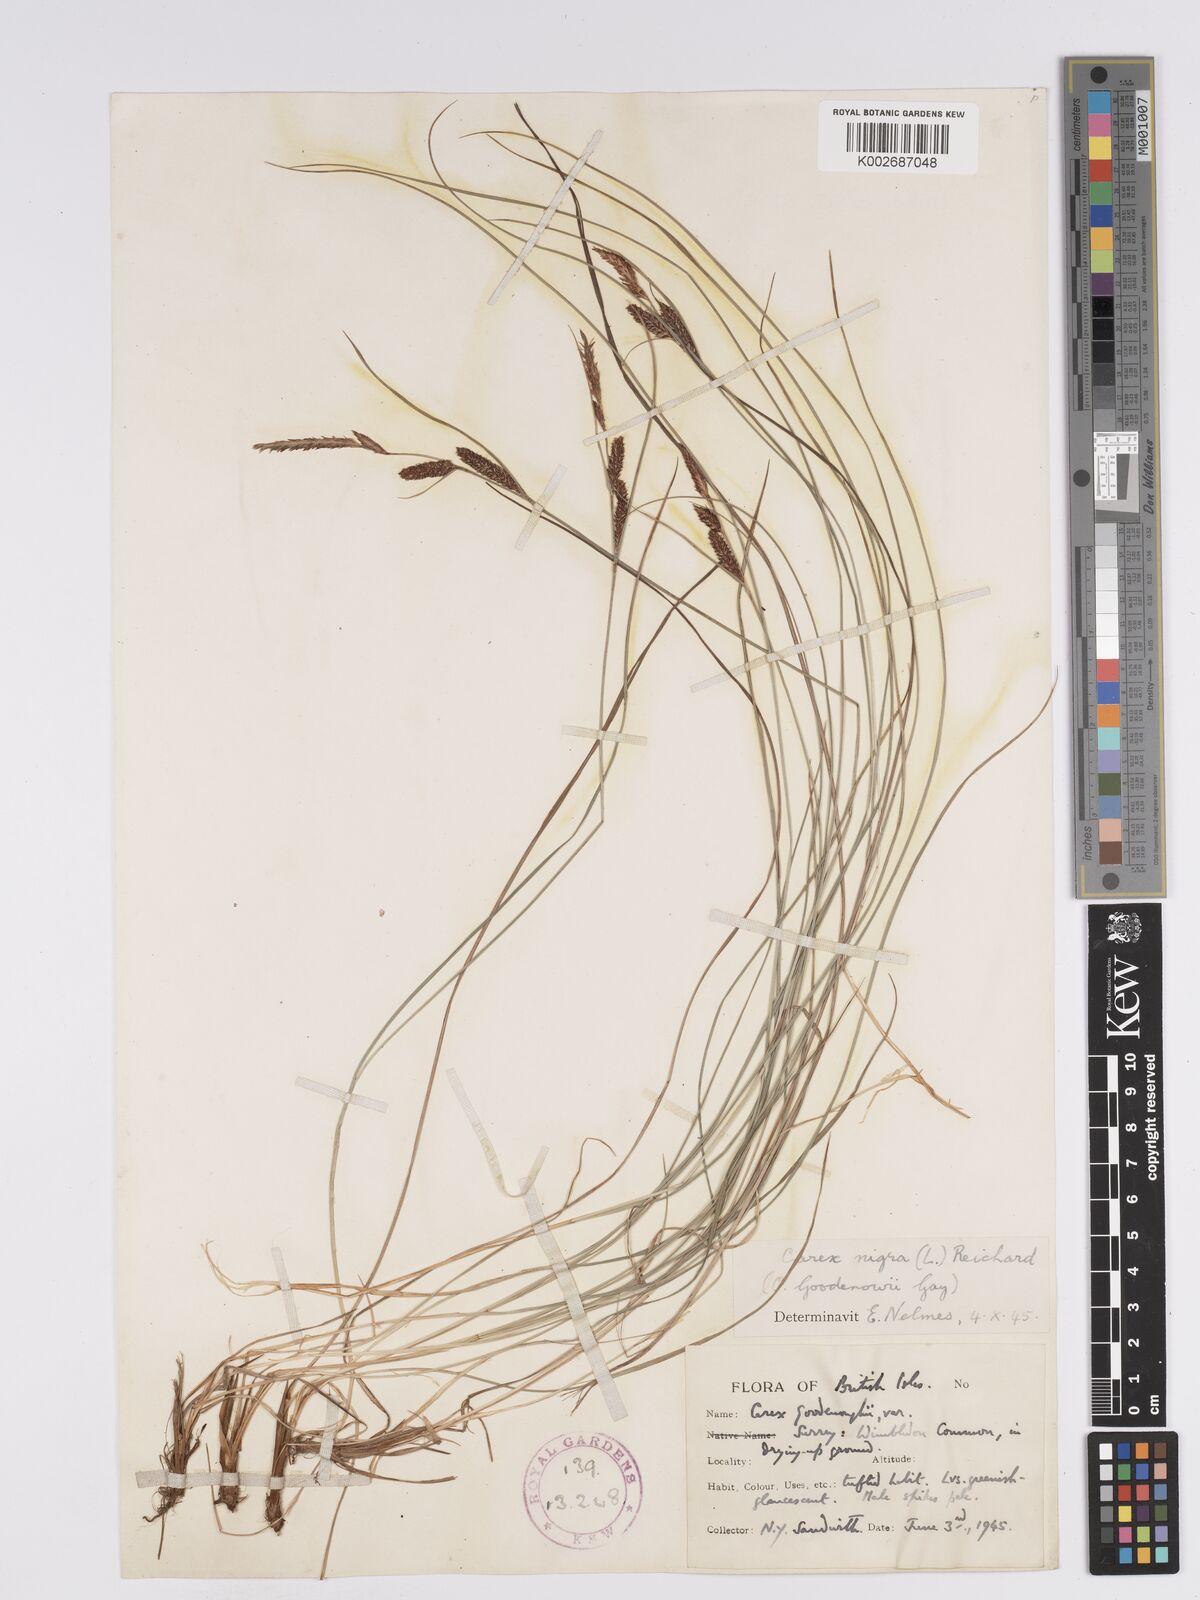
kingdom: Plantae
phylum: Tracheophyta
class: Liliopsida
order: Poales
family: Cyperaceae
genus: Carex
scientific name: Carex nigra
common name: Common sedge
